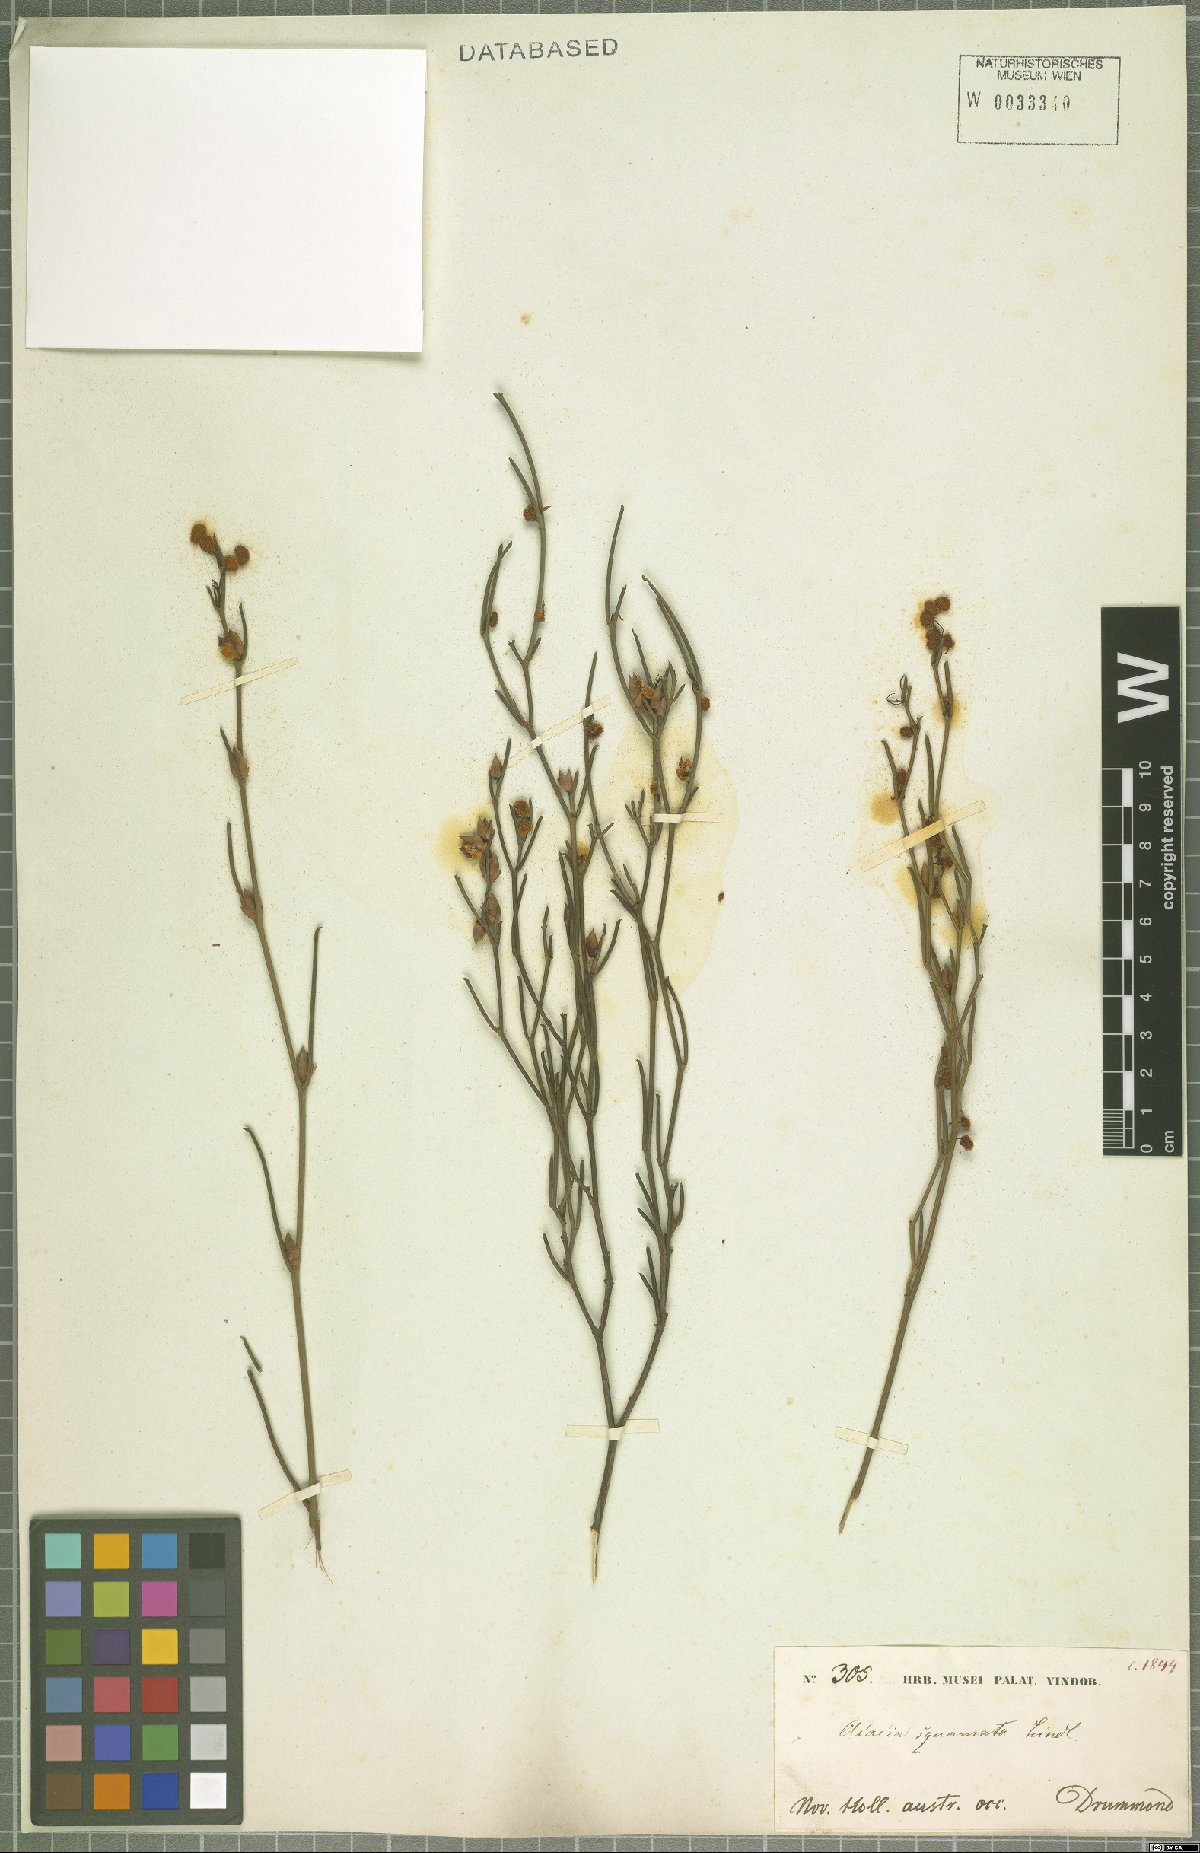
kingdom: Plantae
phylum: Tracheophyta
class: Magnoliopsida
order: Fabales
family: Fabaceae
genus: Acacia
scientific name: Acacia squamata
